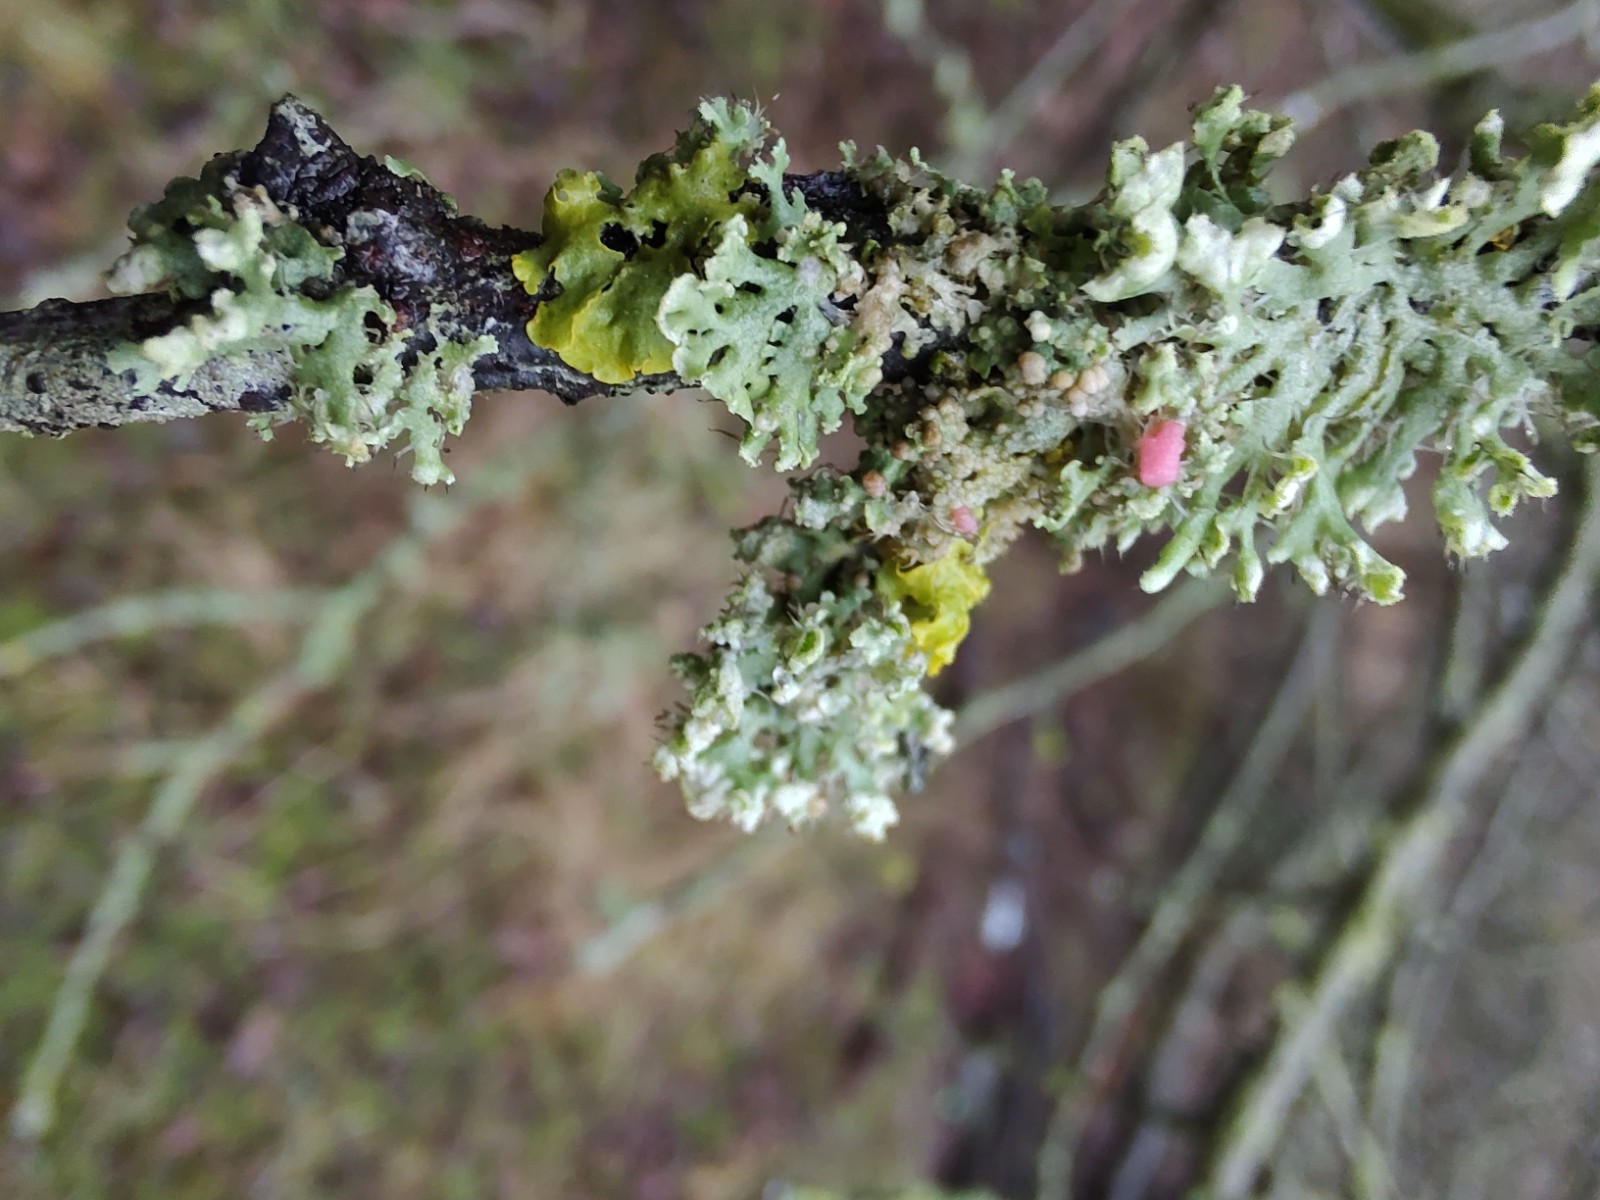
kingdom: Fungi
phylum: Ascomycota
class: Sordariomycetes
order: Hypocreales
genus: Illosporiopsis
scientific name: Illosporiopsis christiansenii
